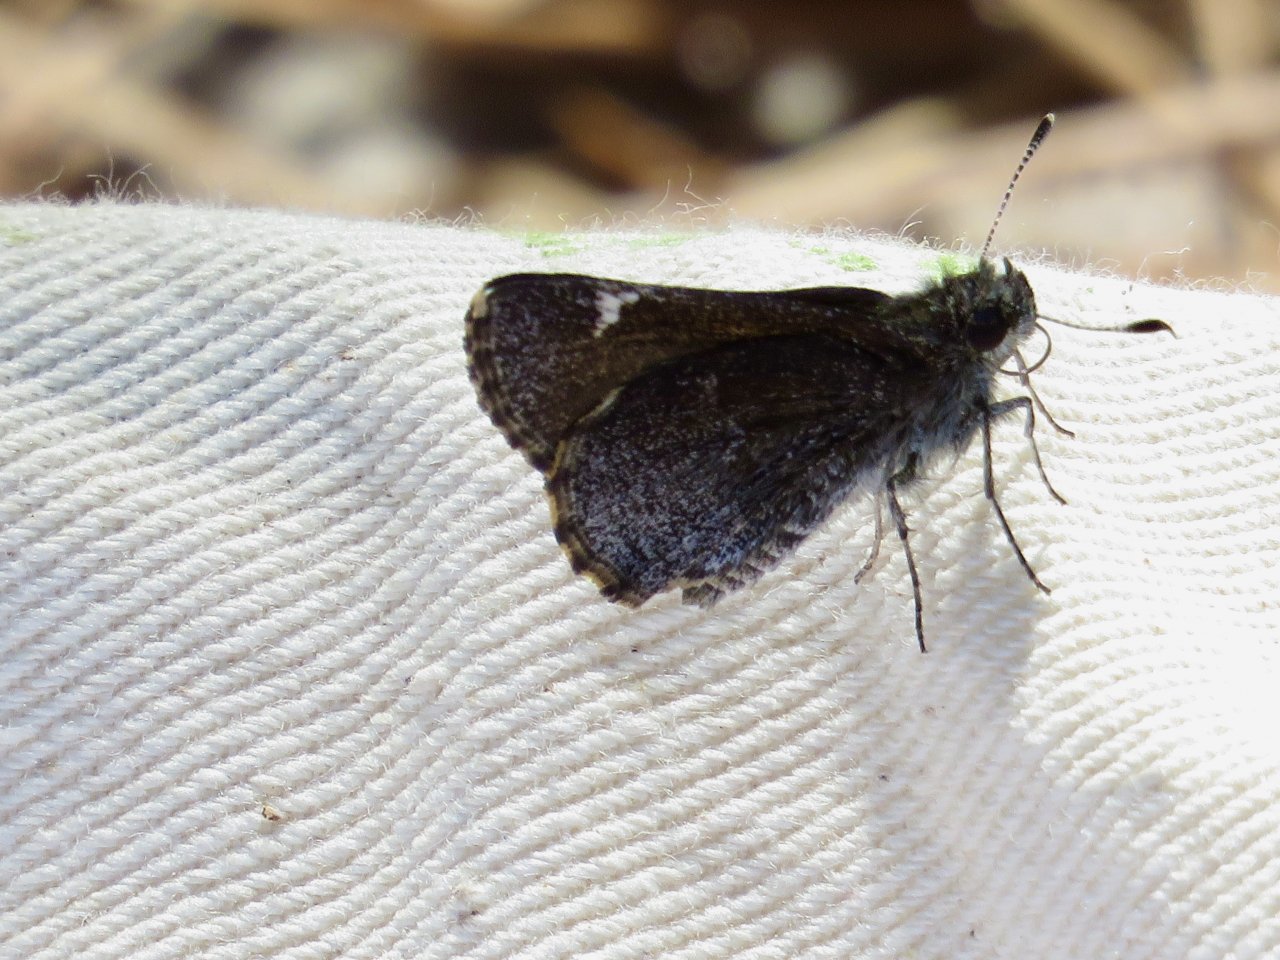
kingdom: Animalia
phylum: Arthropoda
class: Insecta
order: Lepidoptera
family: Hesperiidae
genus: Mastor
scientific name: Mastor vialis
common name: Common Roadside-Skipper
